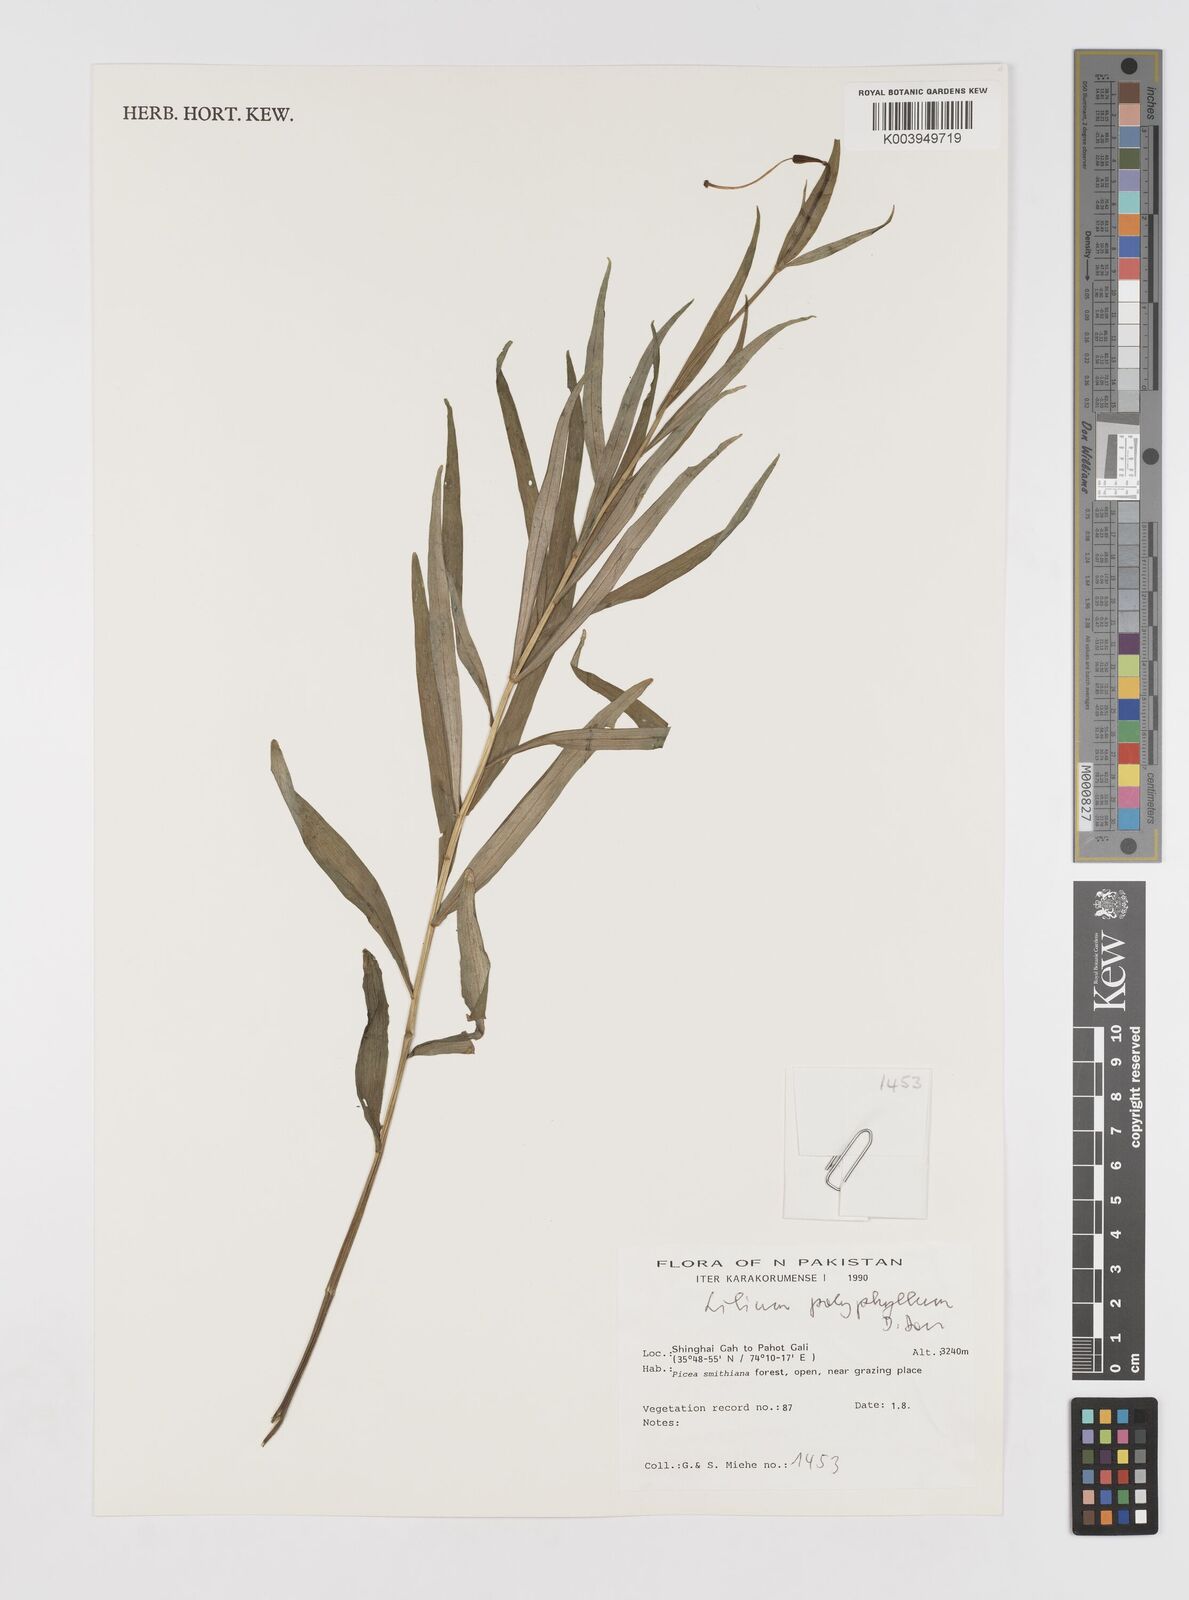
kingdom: Plantae
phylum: Tracheophyta
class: Liliopsida
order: Liliales
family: Liliaceae
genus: Lilium
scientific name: Lilium polyphyllum
